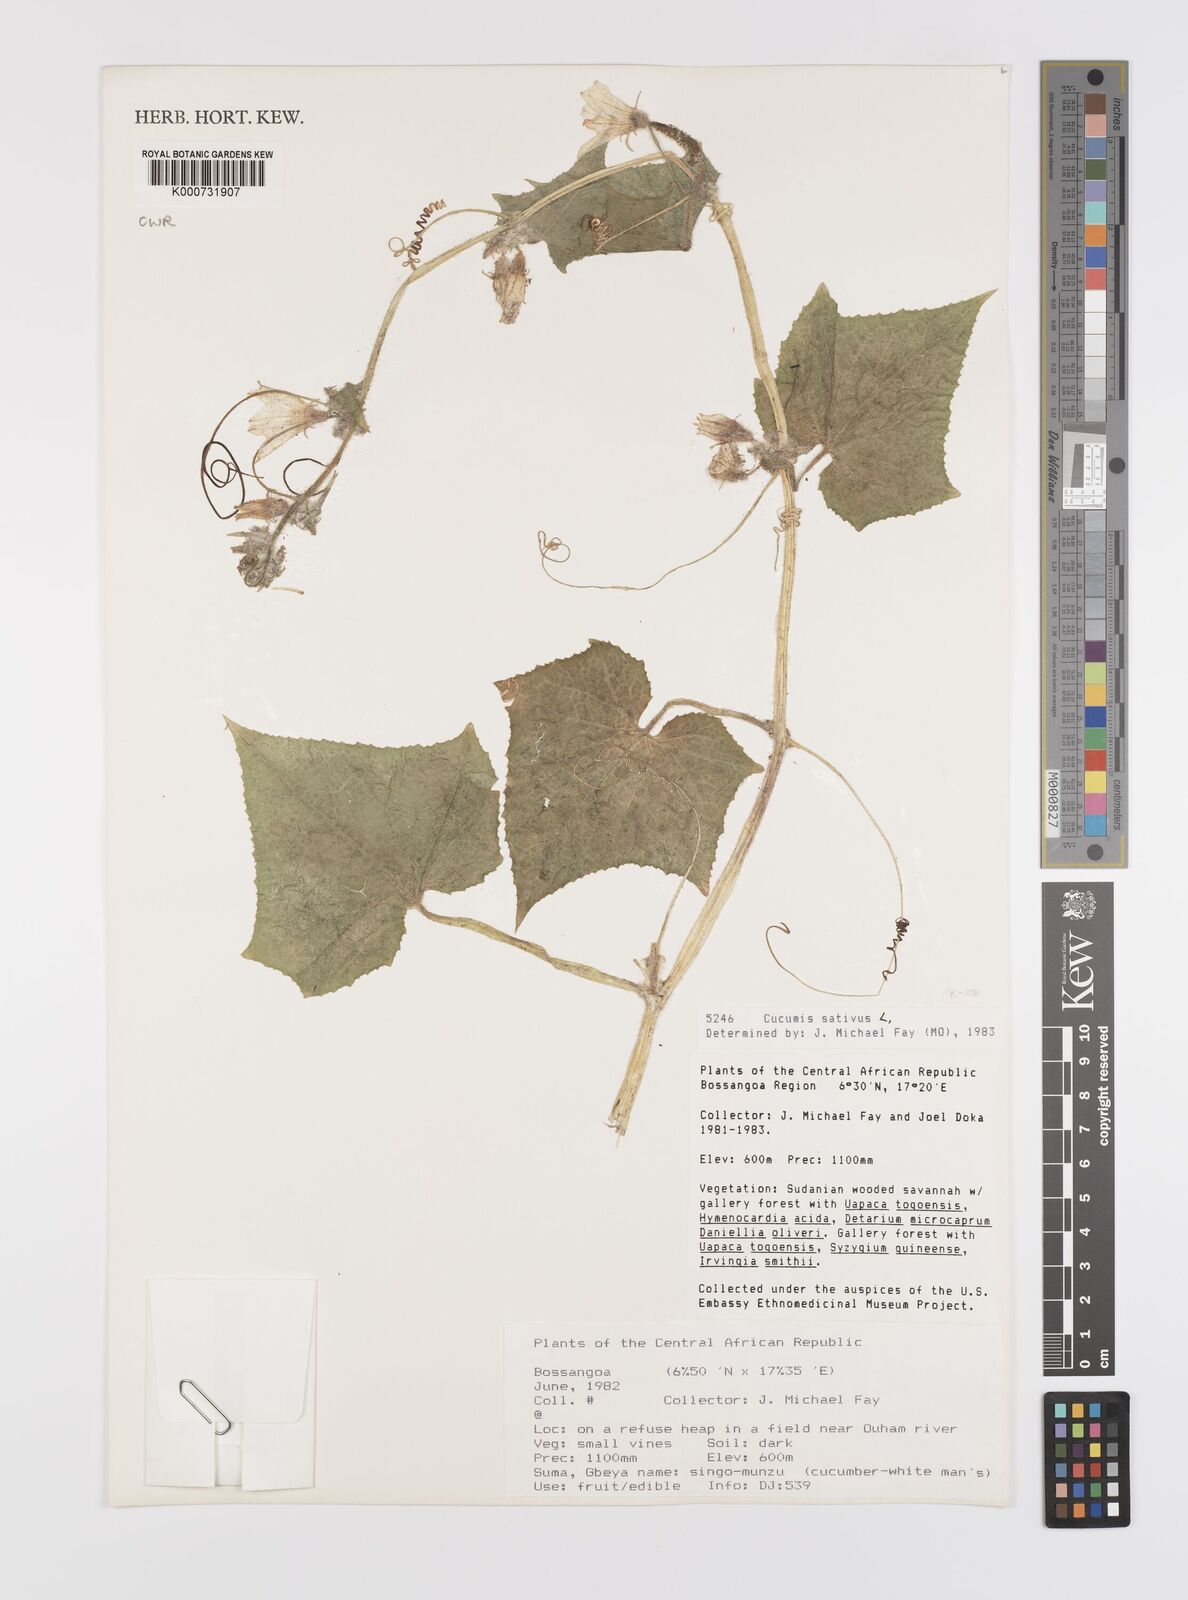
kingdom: Plantae
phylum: Tracheophyta
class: Magnoliopsida
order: Cucurbitales
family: Cucurbitaceae
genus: Cucumis
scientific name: Cucumis sativus
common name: Cucumber
